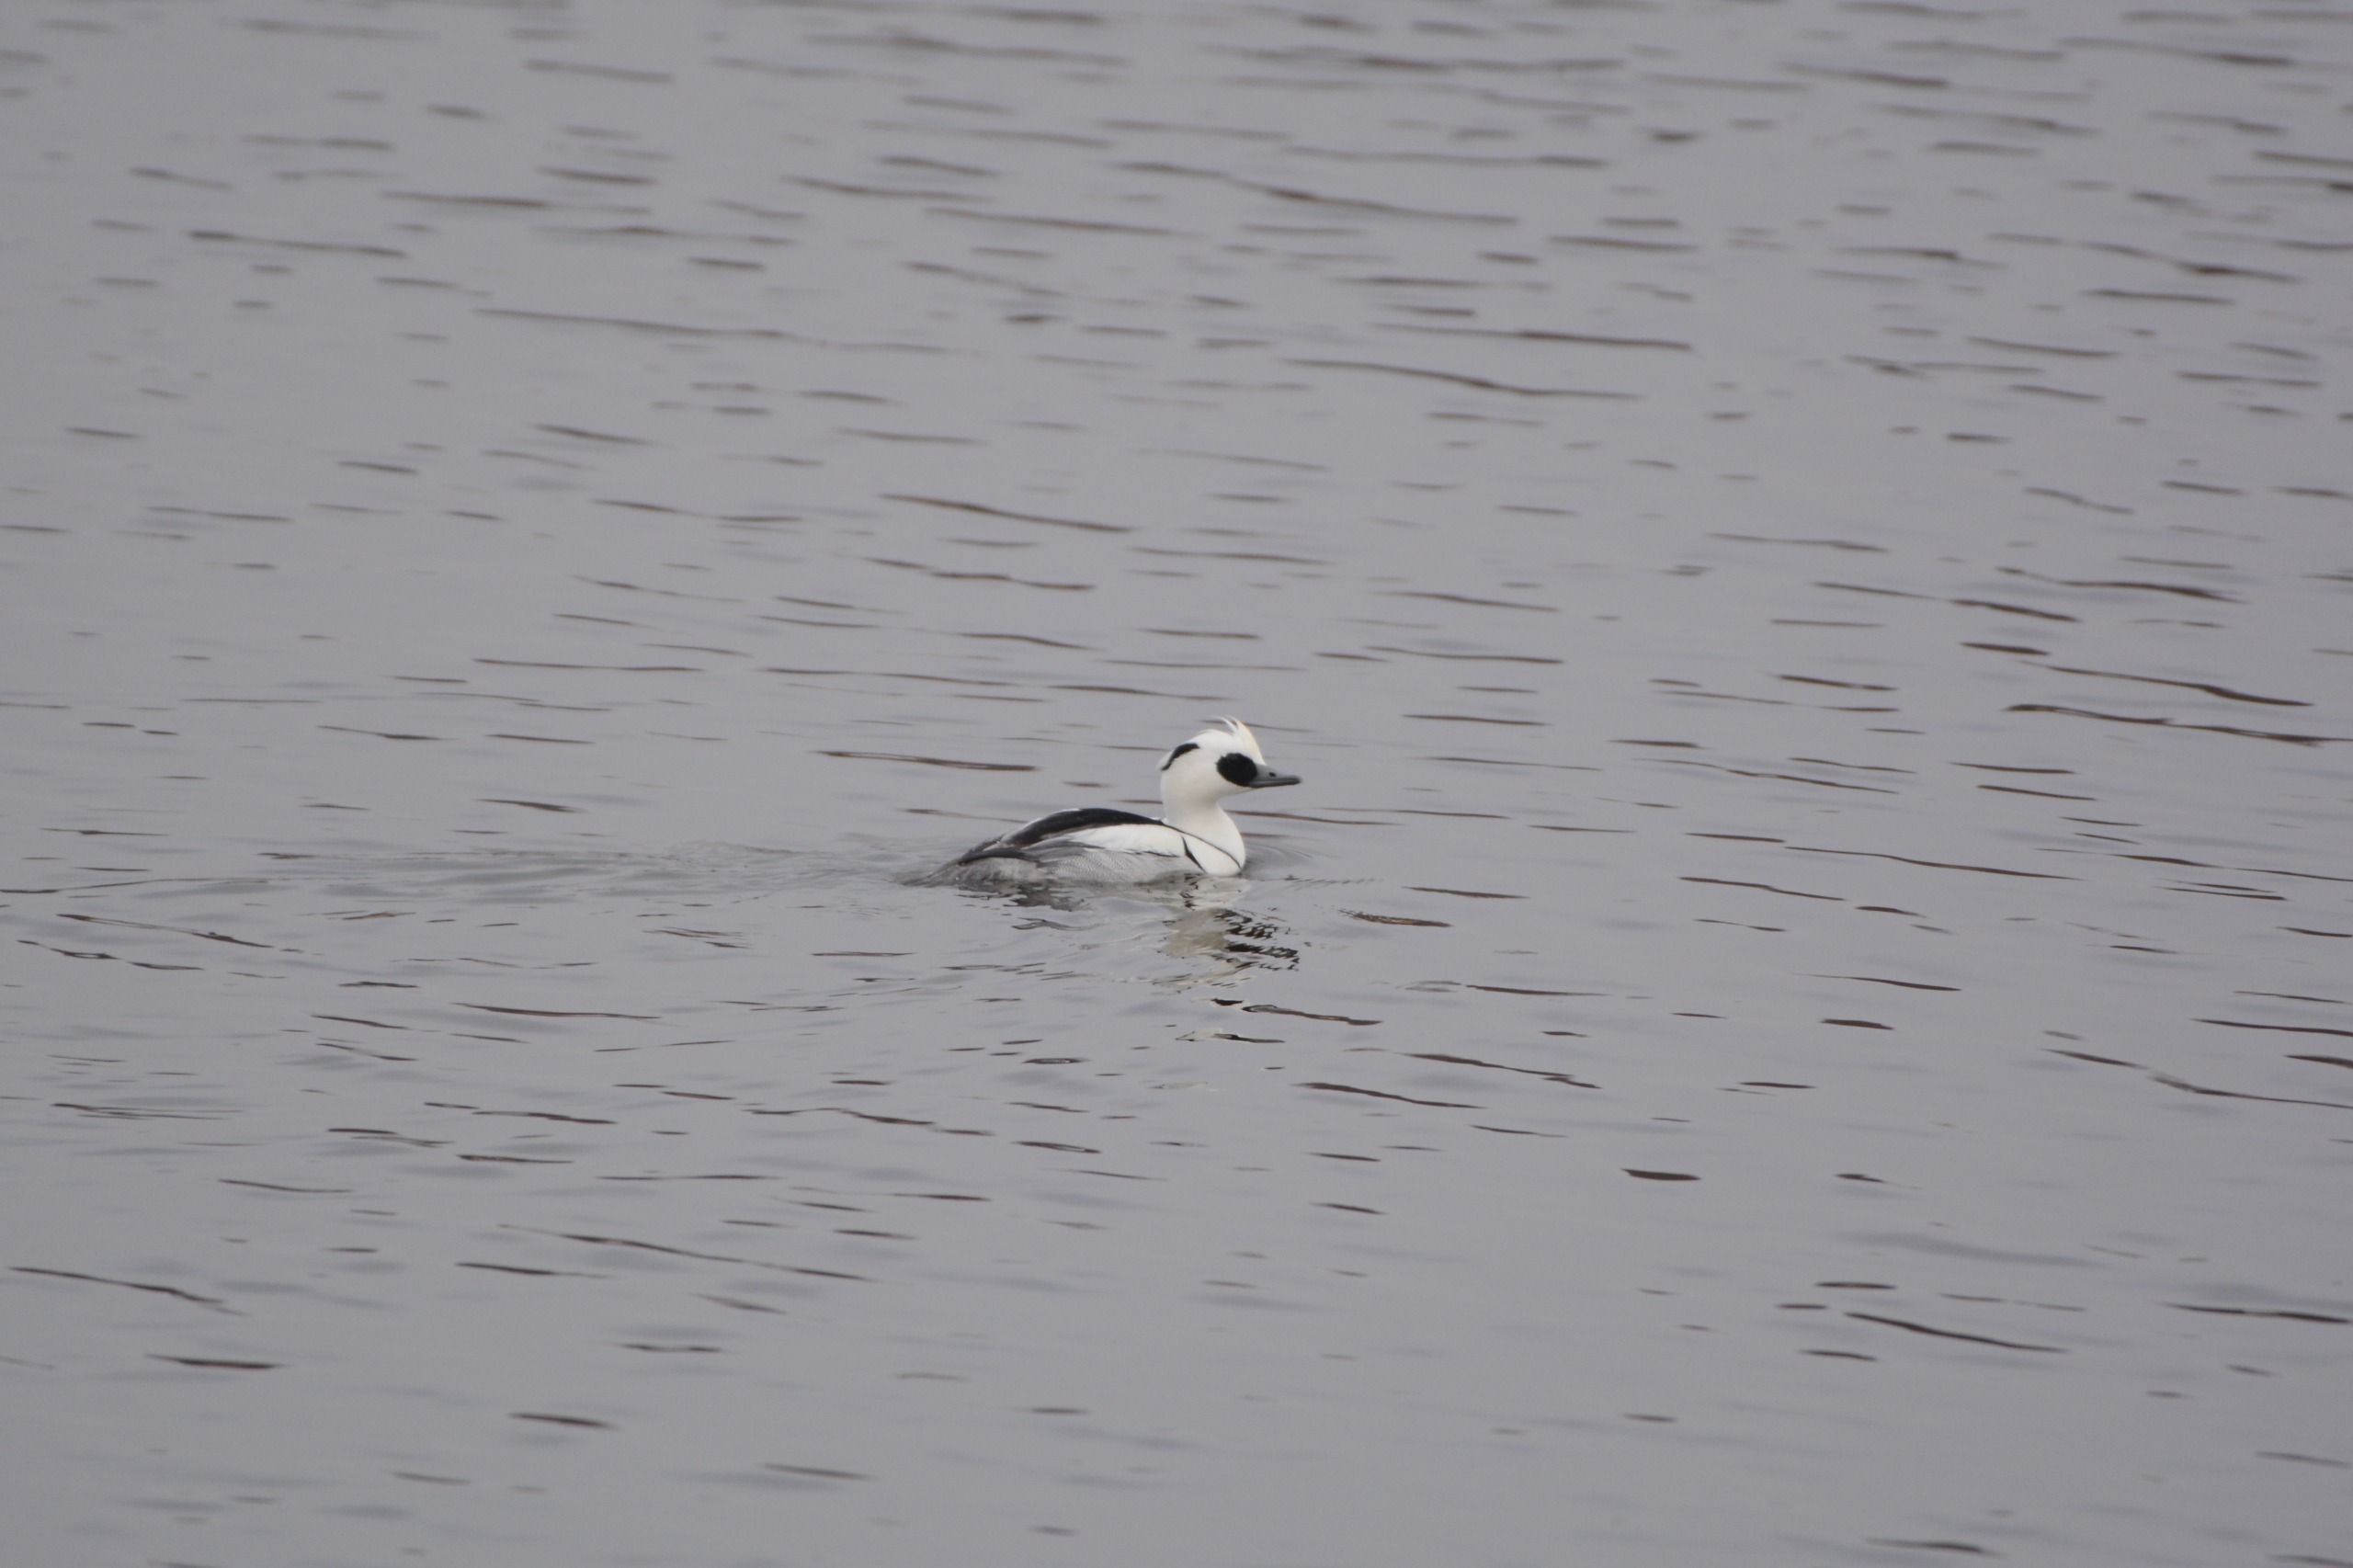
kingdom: Animalia
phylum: Chordata
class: Aves
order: Anseriformes
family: Anatidae
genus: Mergellus
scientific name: Mergellus albellus
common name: Lille skallesluger
